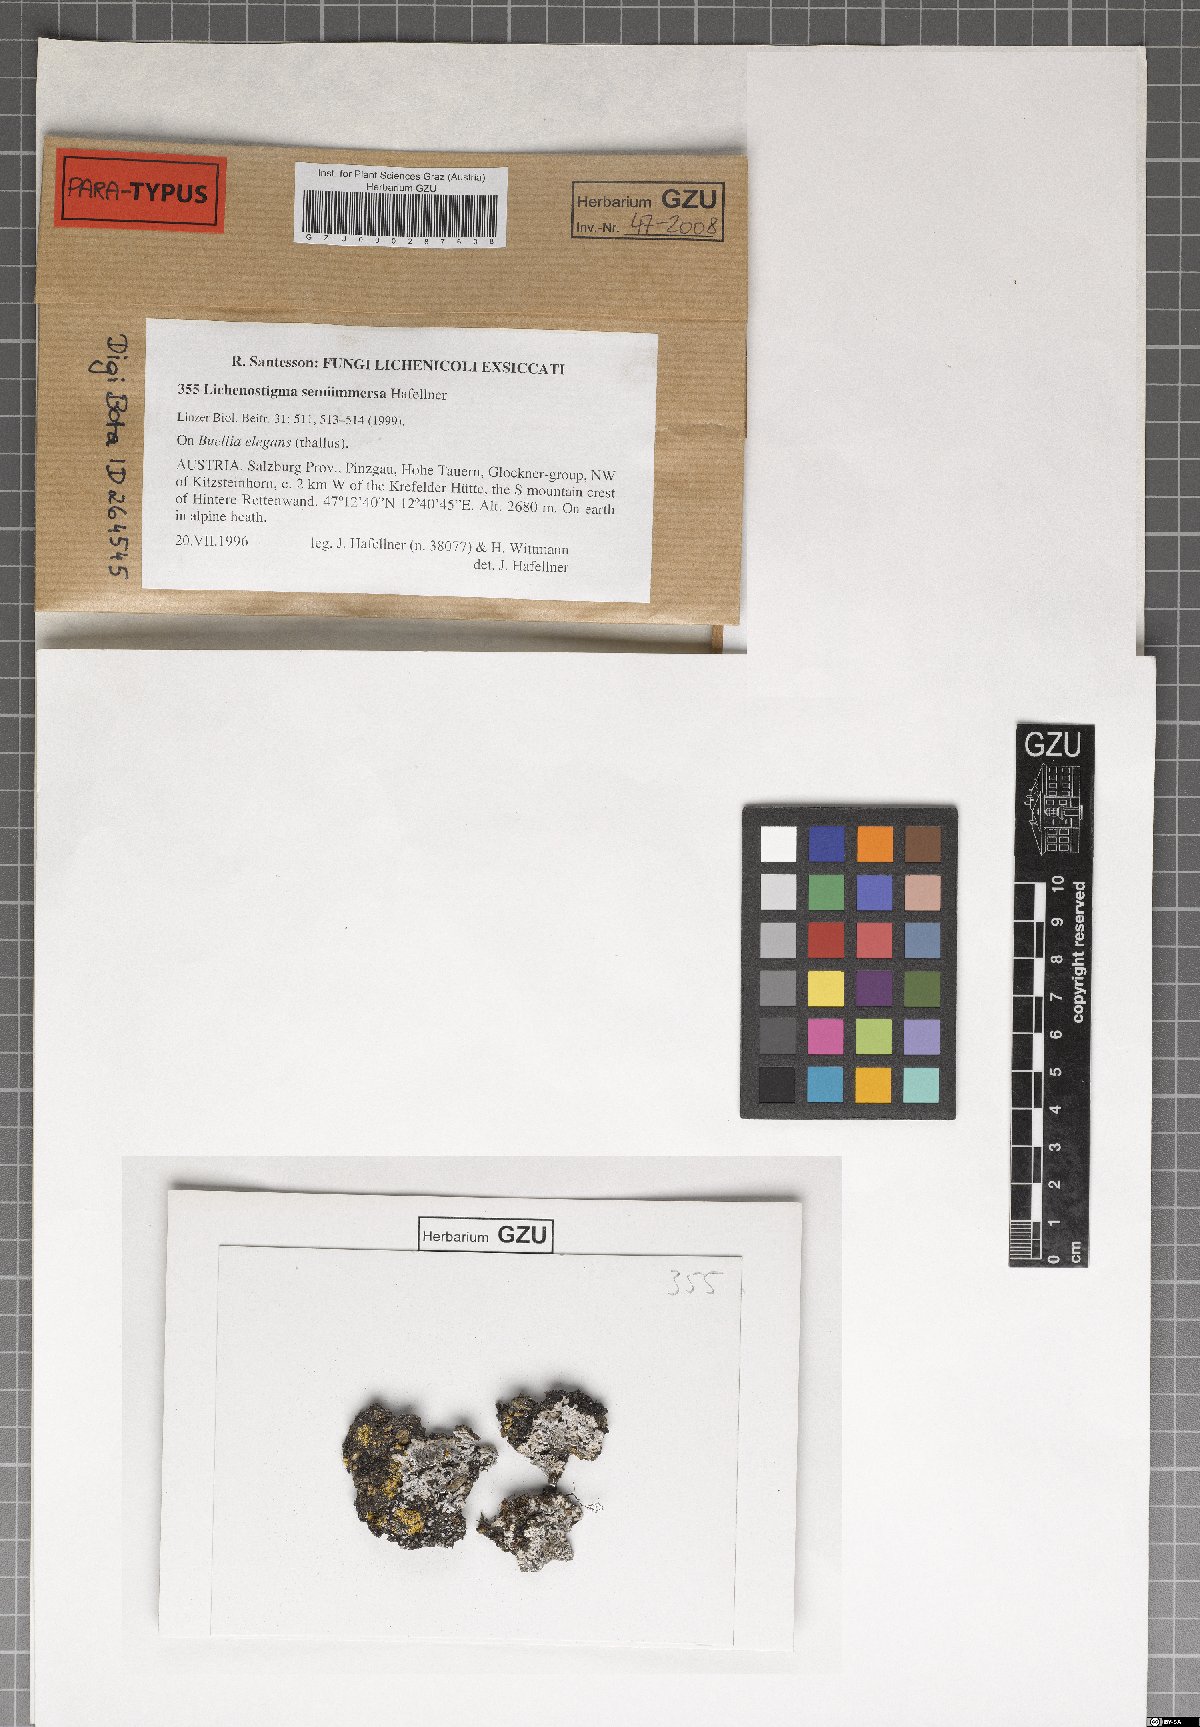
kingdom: Fungi
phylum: Ascomycota
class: Dothideomycetes
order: Lichenotheliales
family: Lichenotheliaceae
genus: Lichenostigma
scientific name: Lichenostigma semi-immersum
